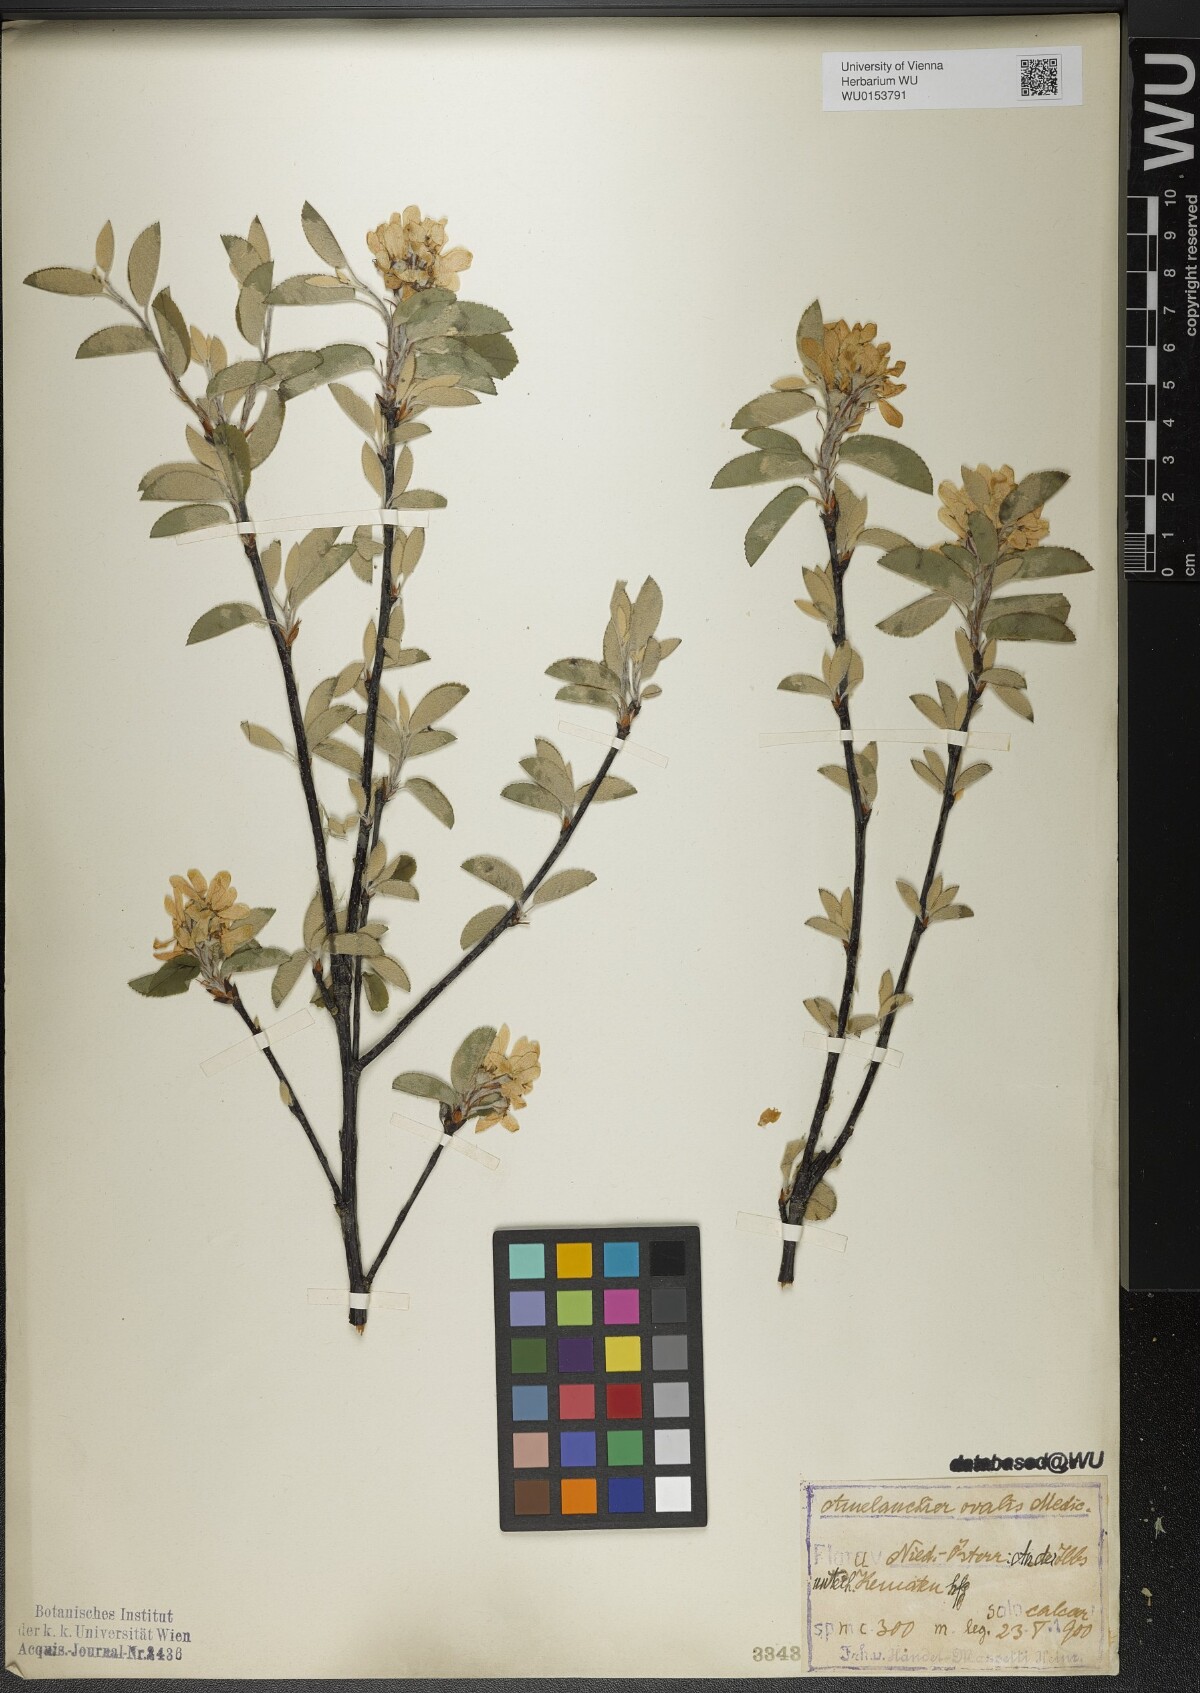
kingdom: Plantae
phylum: Tracheophyta
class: Magnoliopsida
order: Rosales
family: Rosaceae
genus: Amelanchier
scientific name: Amelanchier ovalis
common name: Serviceberry
